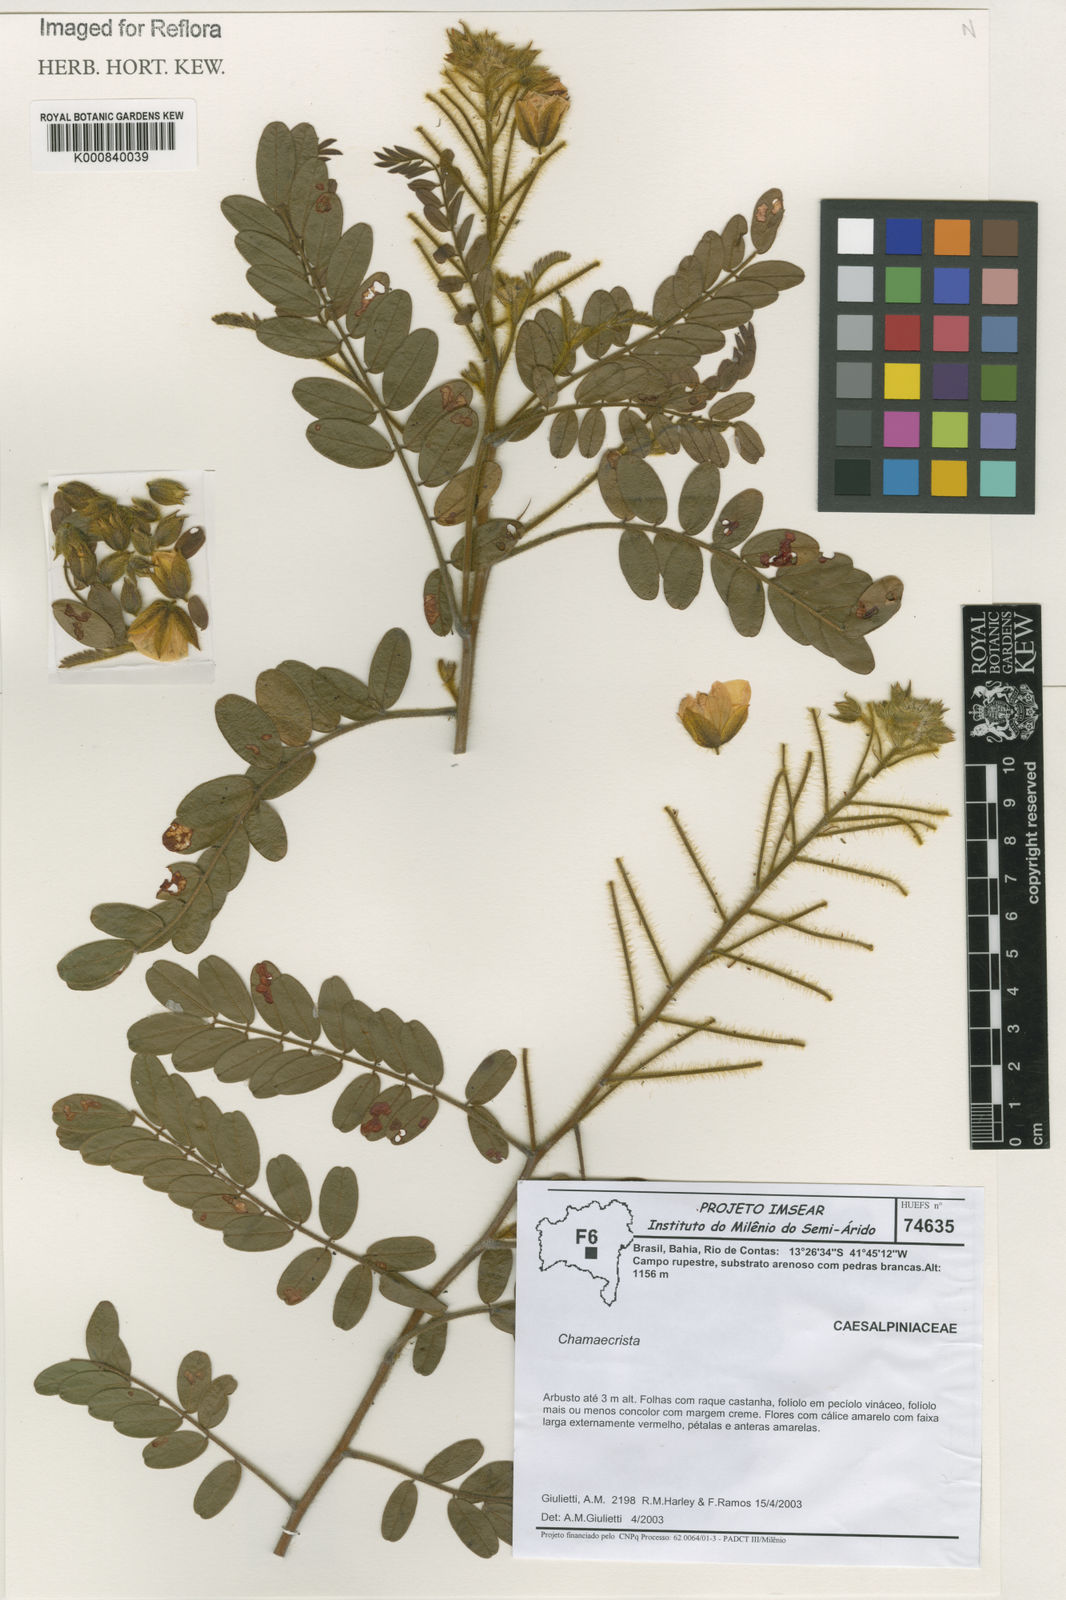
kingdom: Plantae
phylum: Tracheophyta
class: Magnoliopsida
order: Fabales
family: Fabaceae
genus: Chamaecrista
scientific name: Chamaecrista
